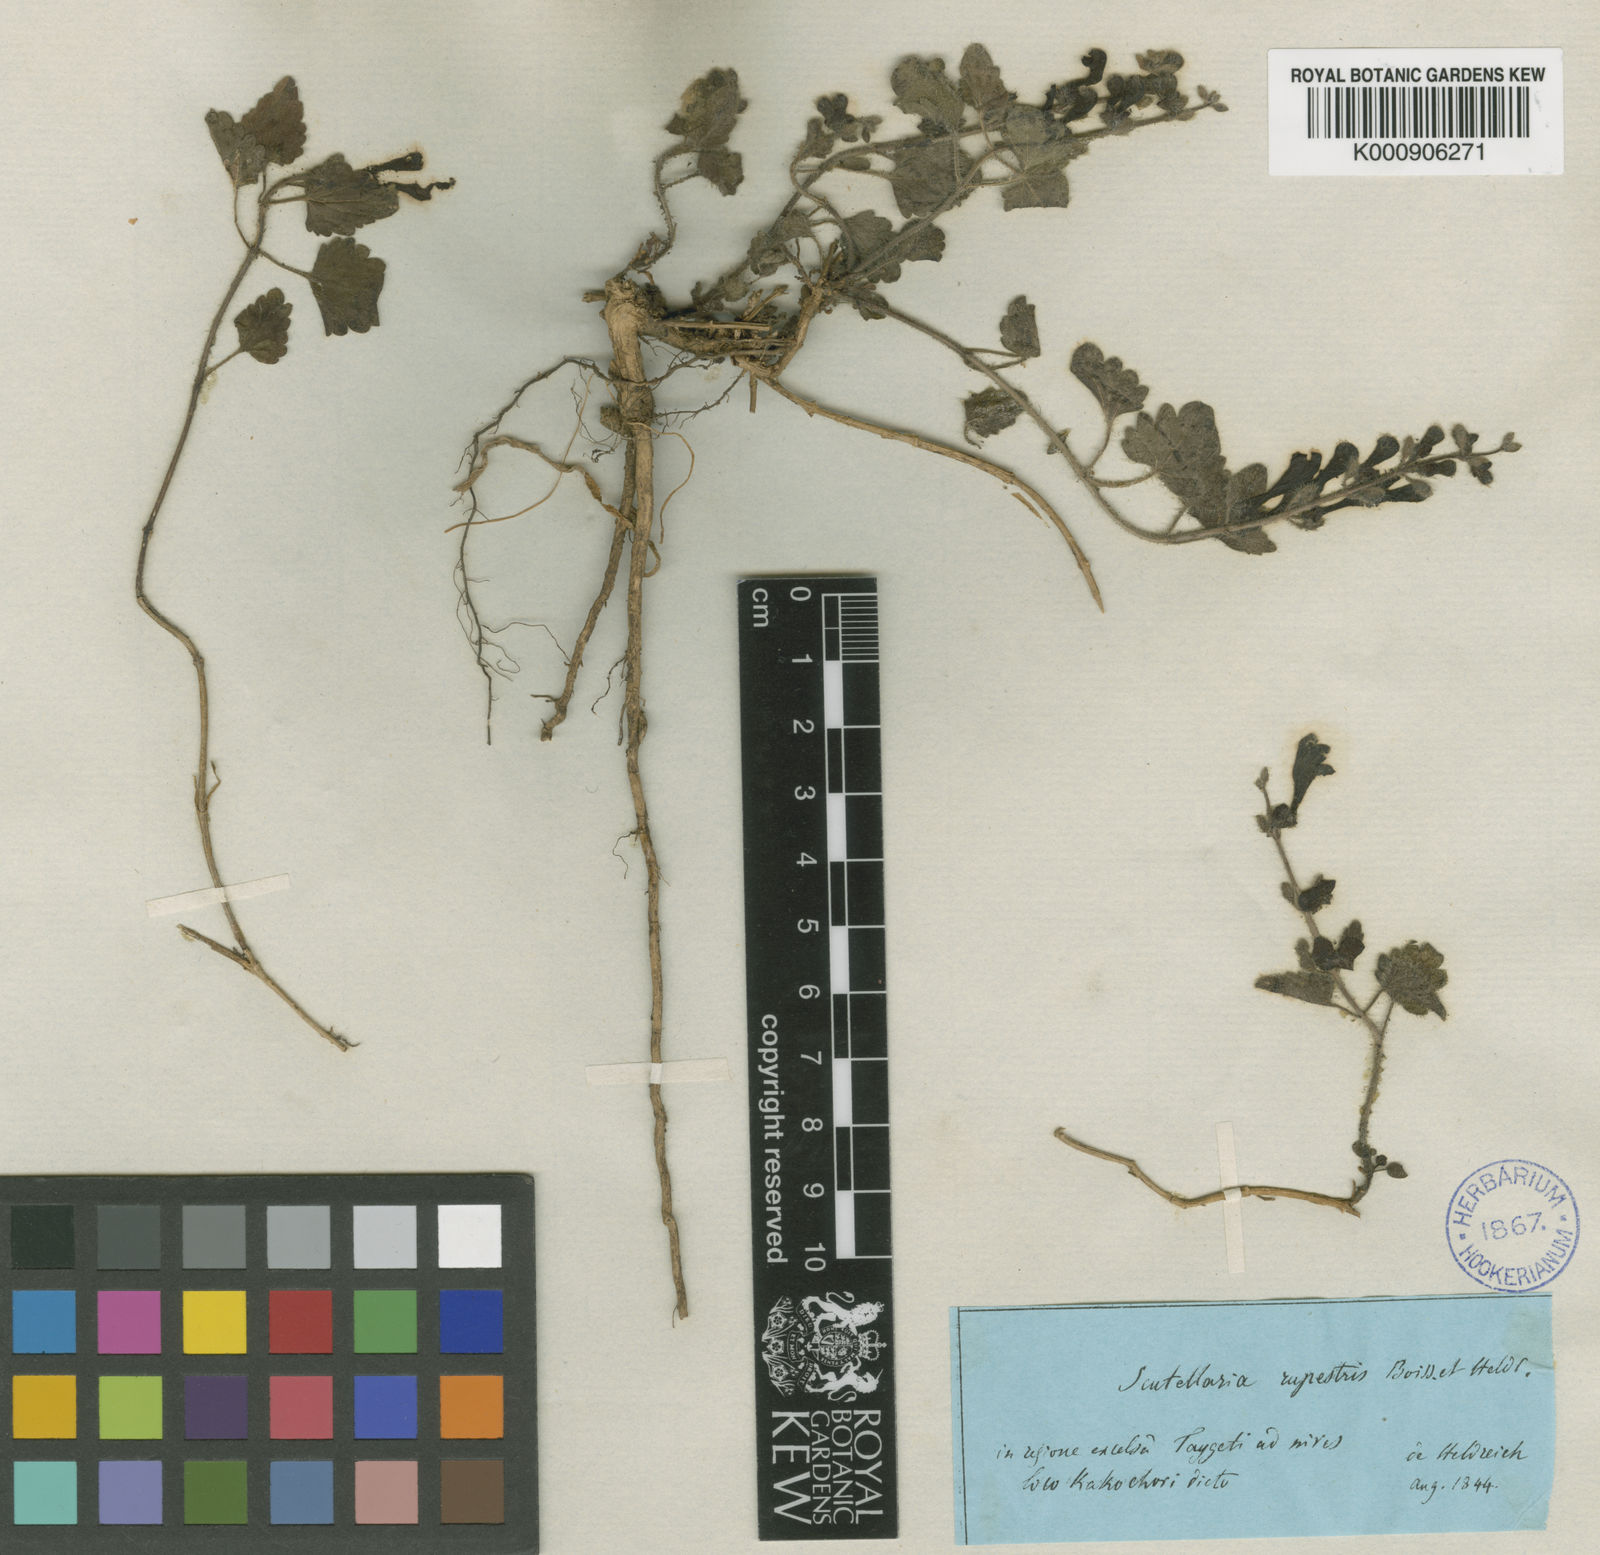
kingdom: Plantae
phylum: Tracheophyta
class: Magnoliopsida
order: Lamiales
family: Lamiaceae
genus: Scutellaria
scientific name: Scutellaria rupestris
